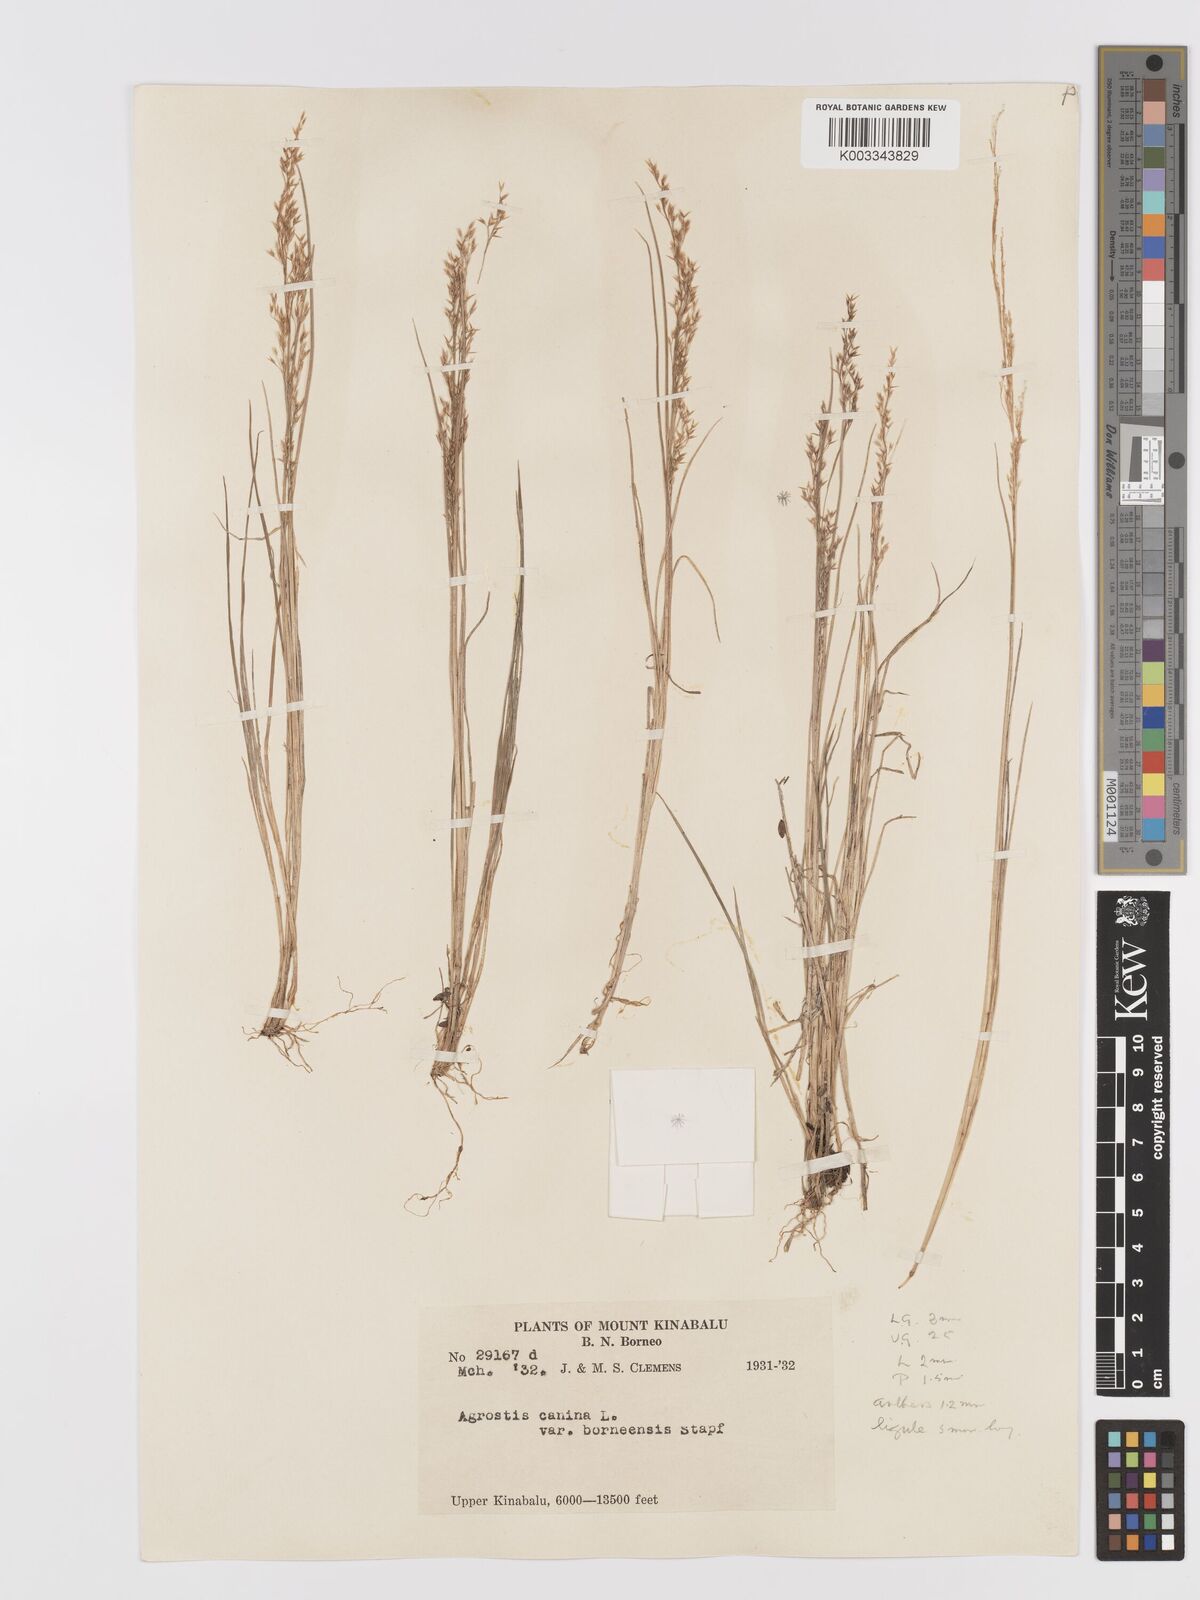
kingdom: Plantae
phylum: Tracheophyta
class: Liliopsida
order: Poales
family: Poaceae
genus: Agrostis
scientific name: Agrostis infirma
